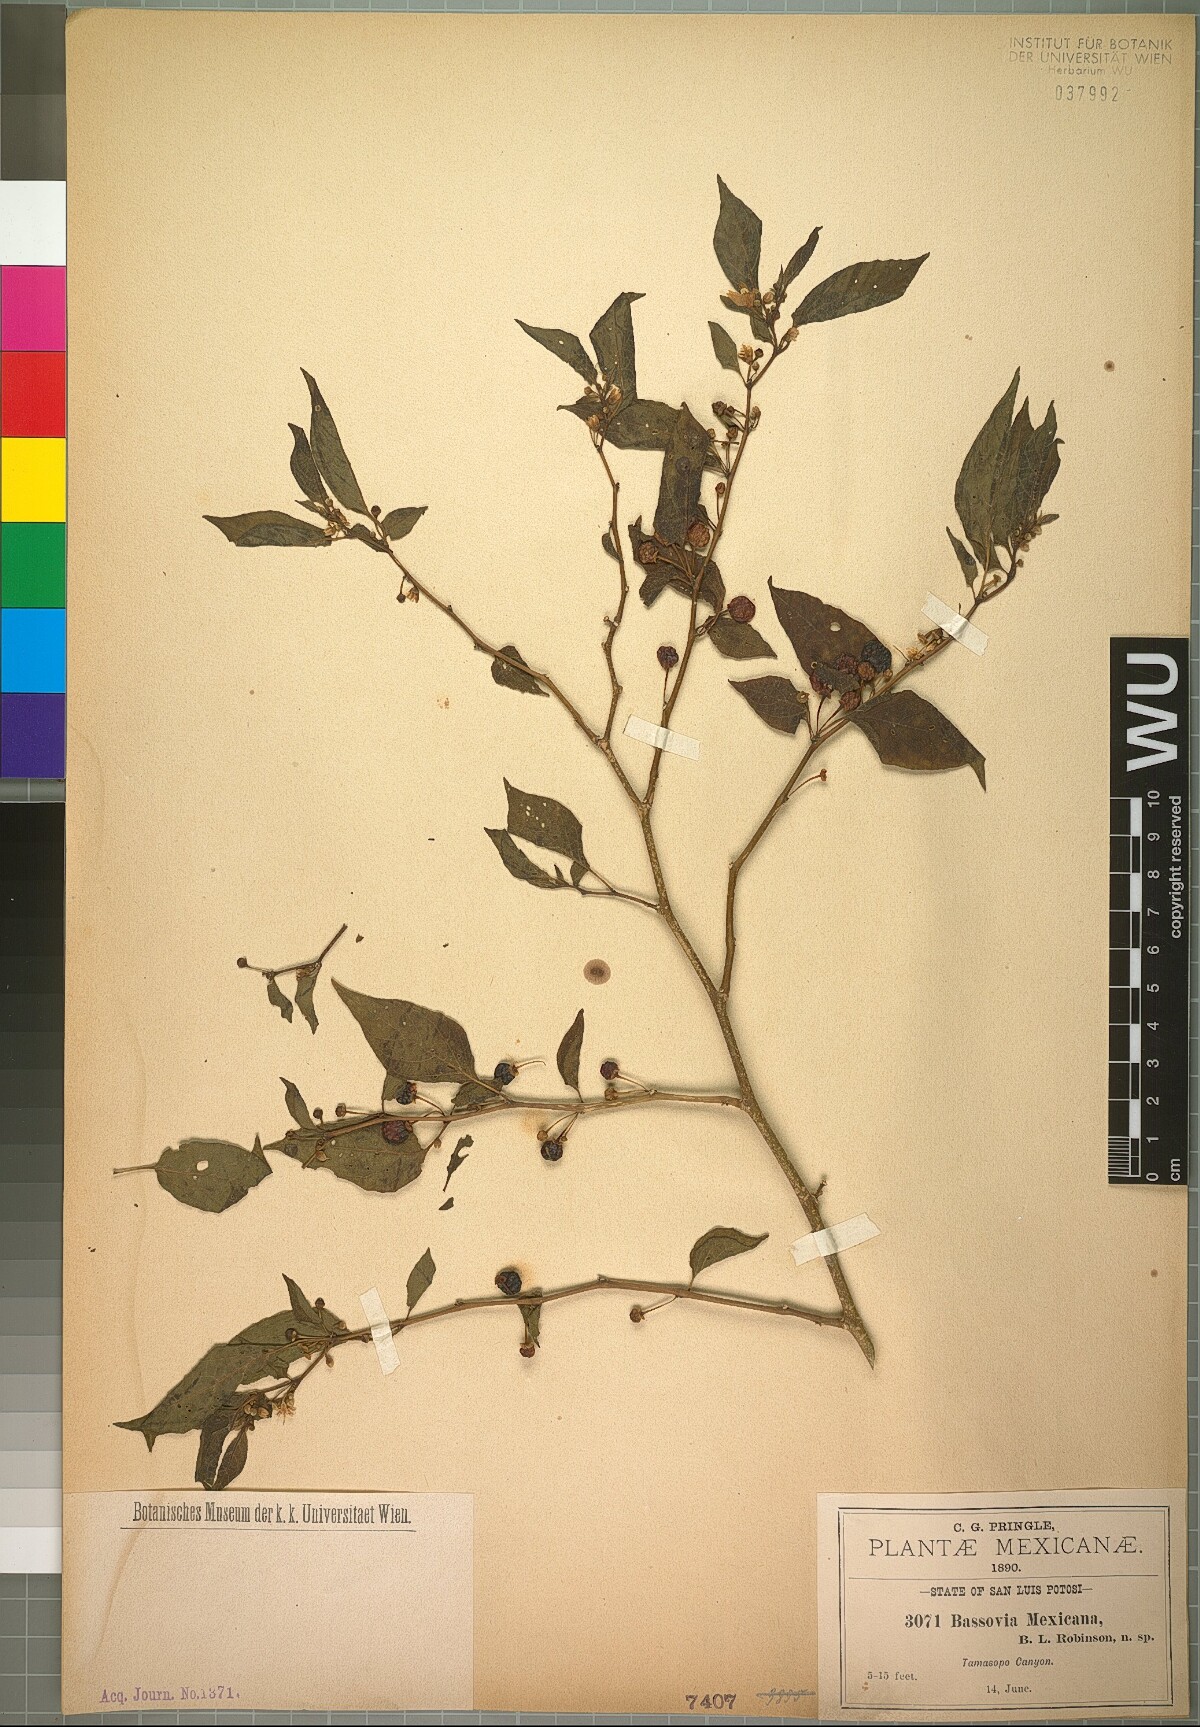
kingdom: Plantae
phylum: Tracheophyta
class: Magnoliopsida
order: Solanales
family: Solanaceae
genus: Witheringia
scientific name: Witheringia mexicana
